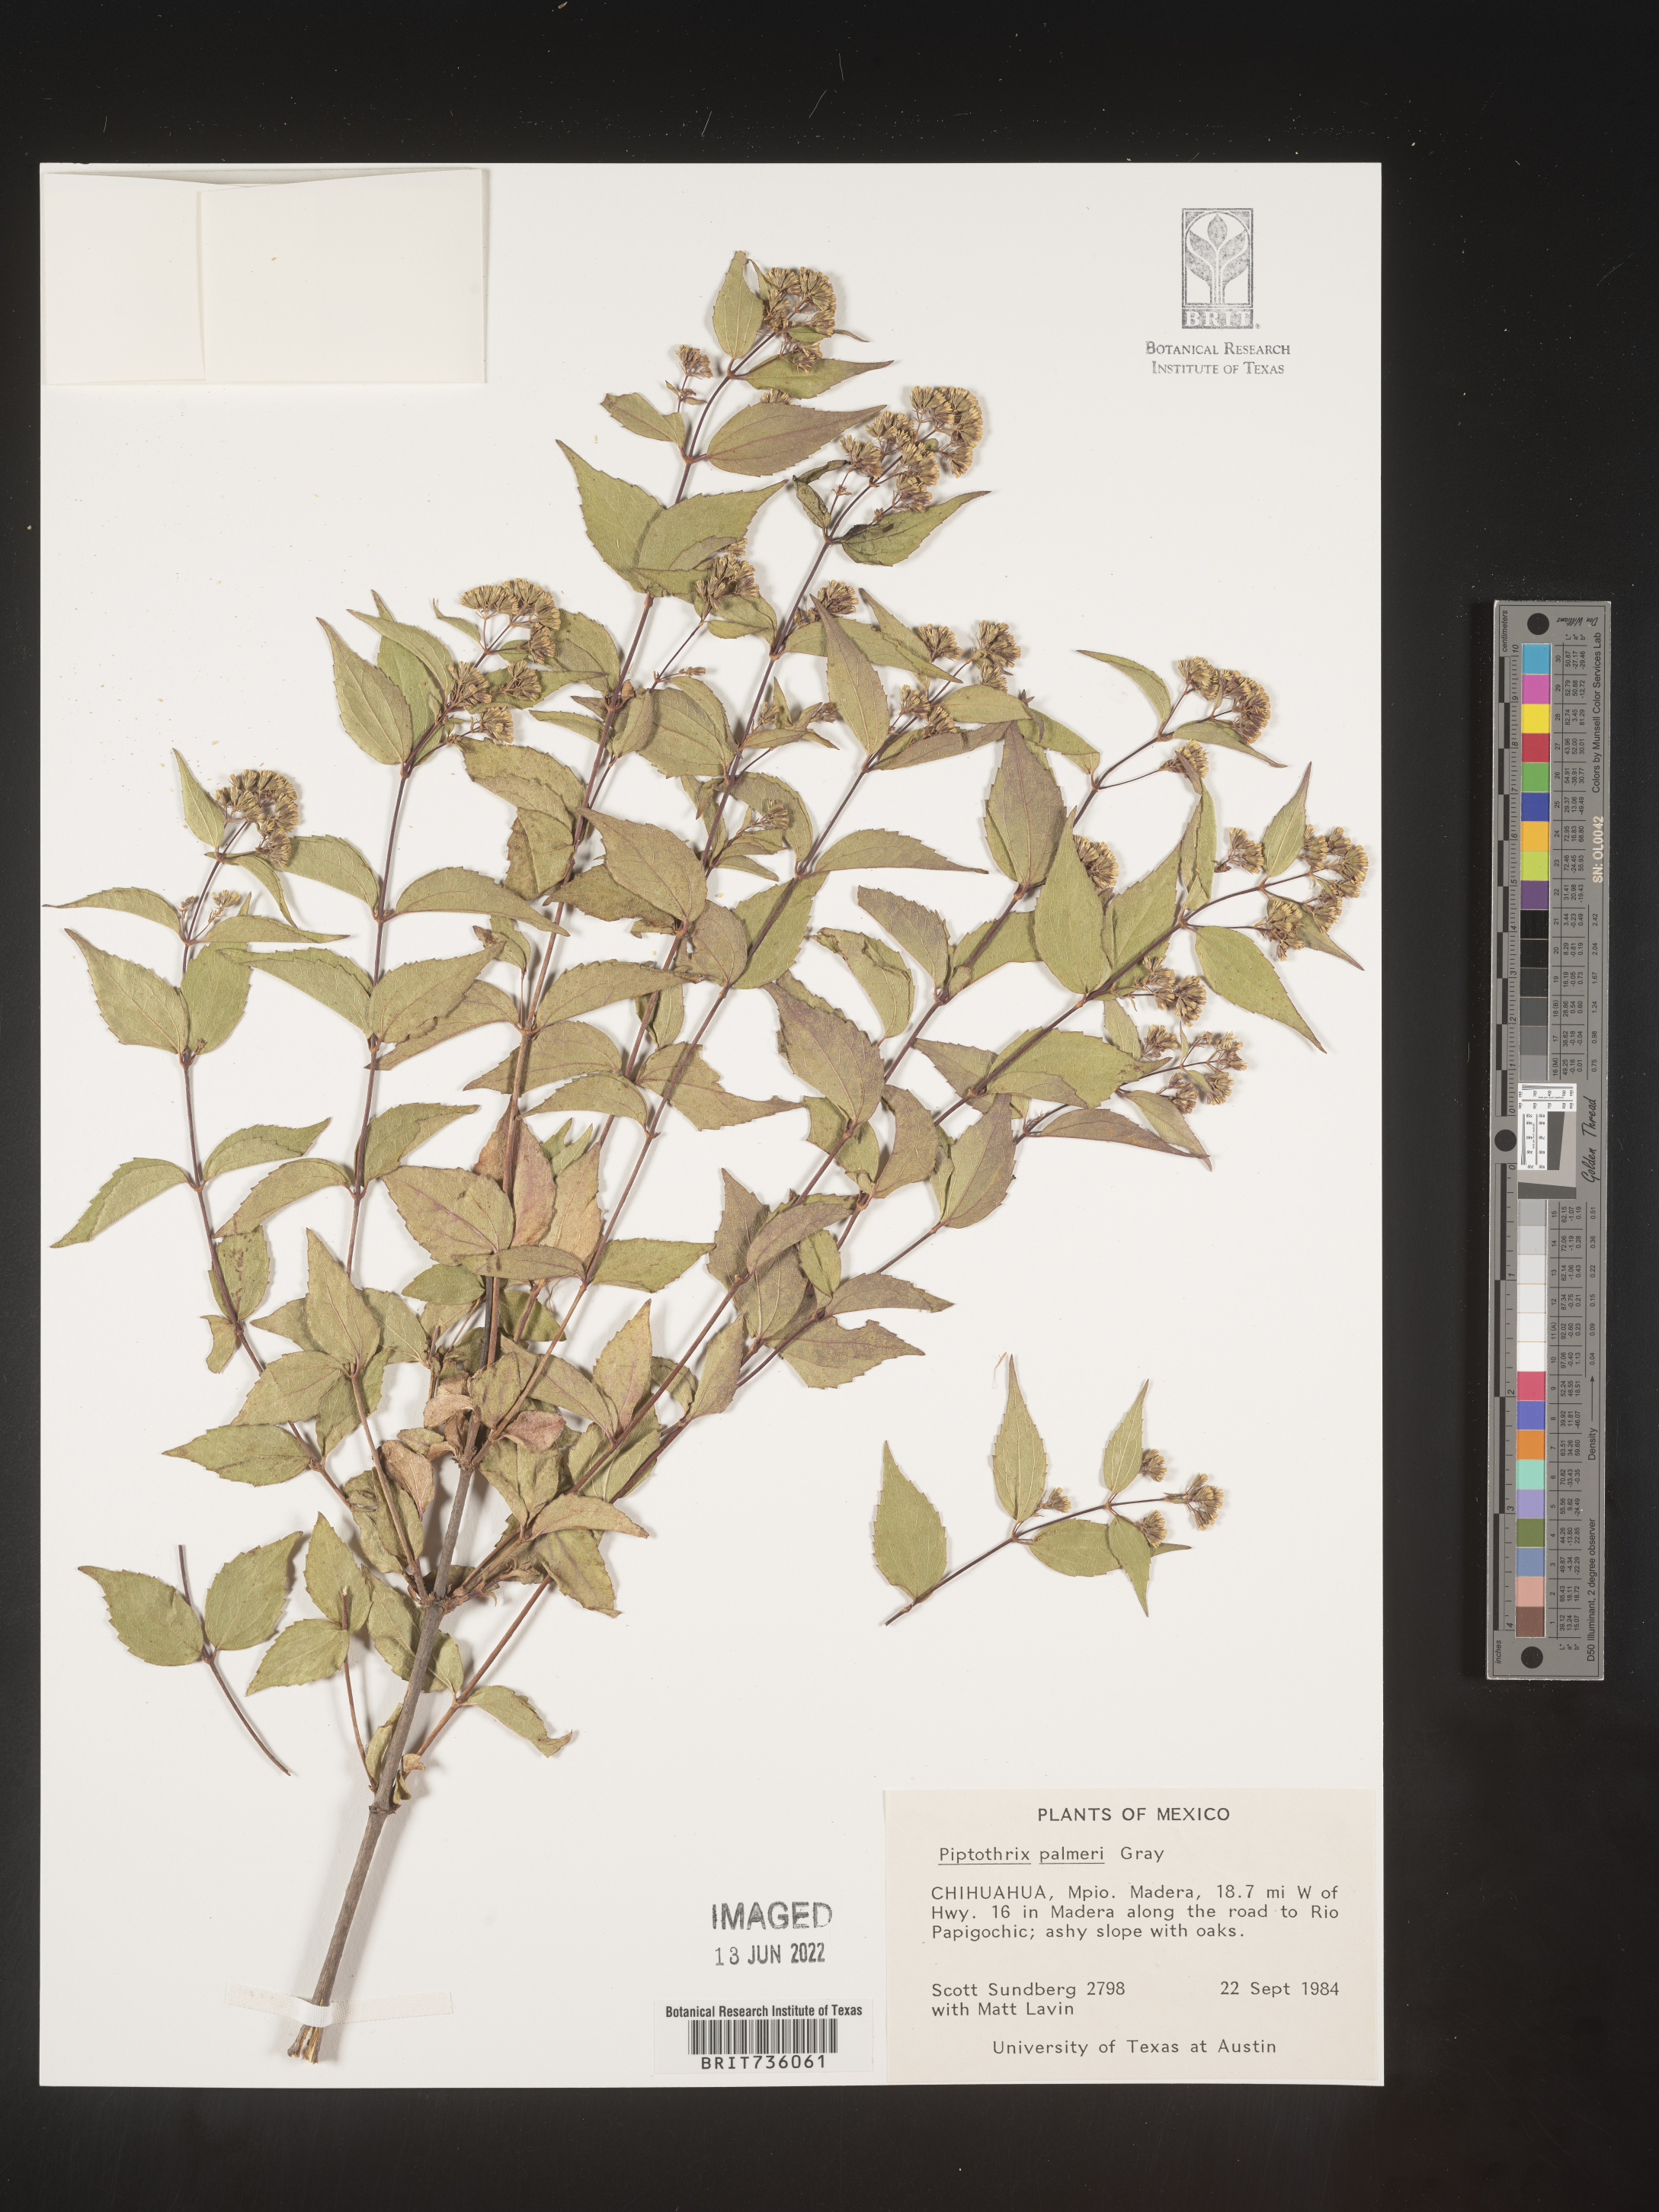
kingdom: Plantae
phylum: Tracheophyta
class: Magnoliopsida
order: Asterales
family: Asteraceae
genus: Ageratina
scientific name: Ageratina
